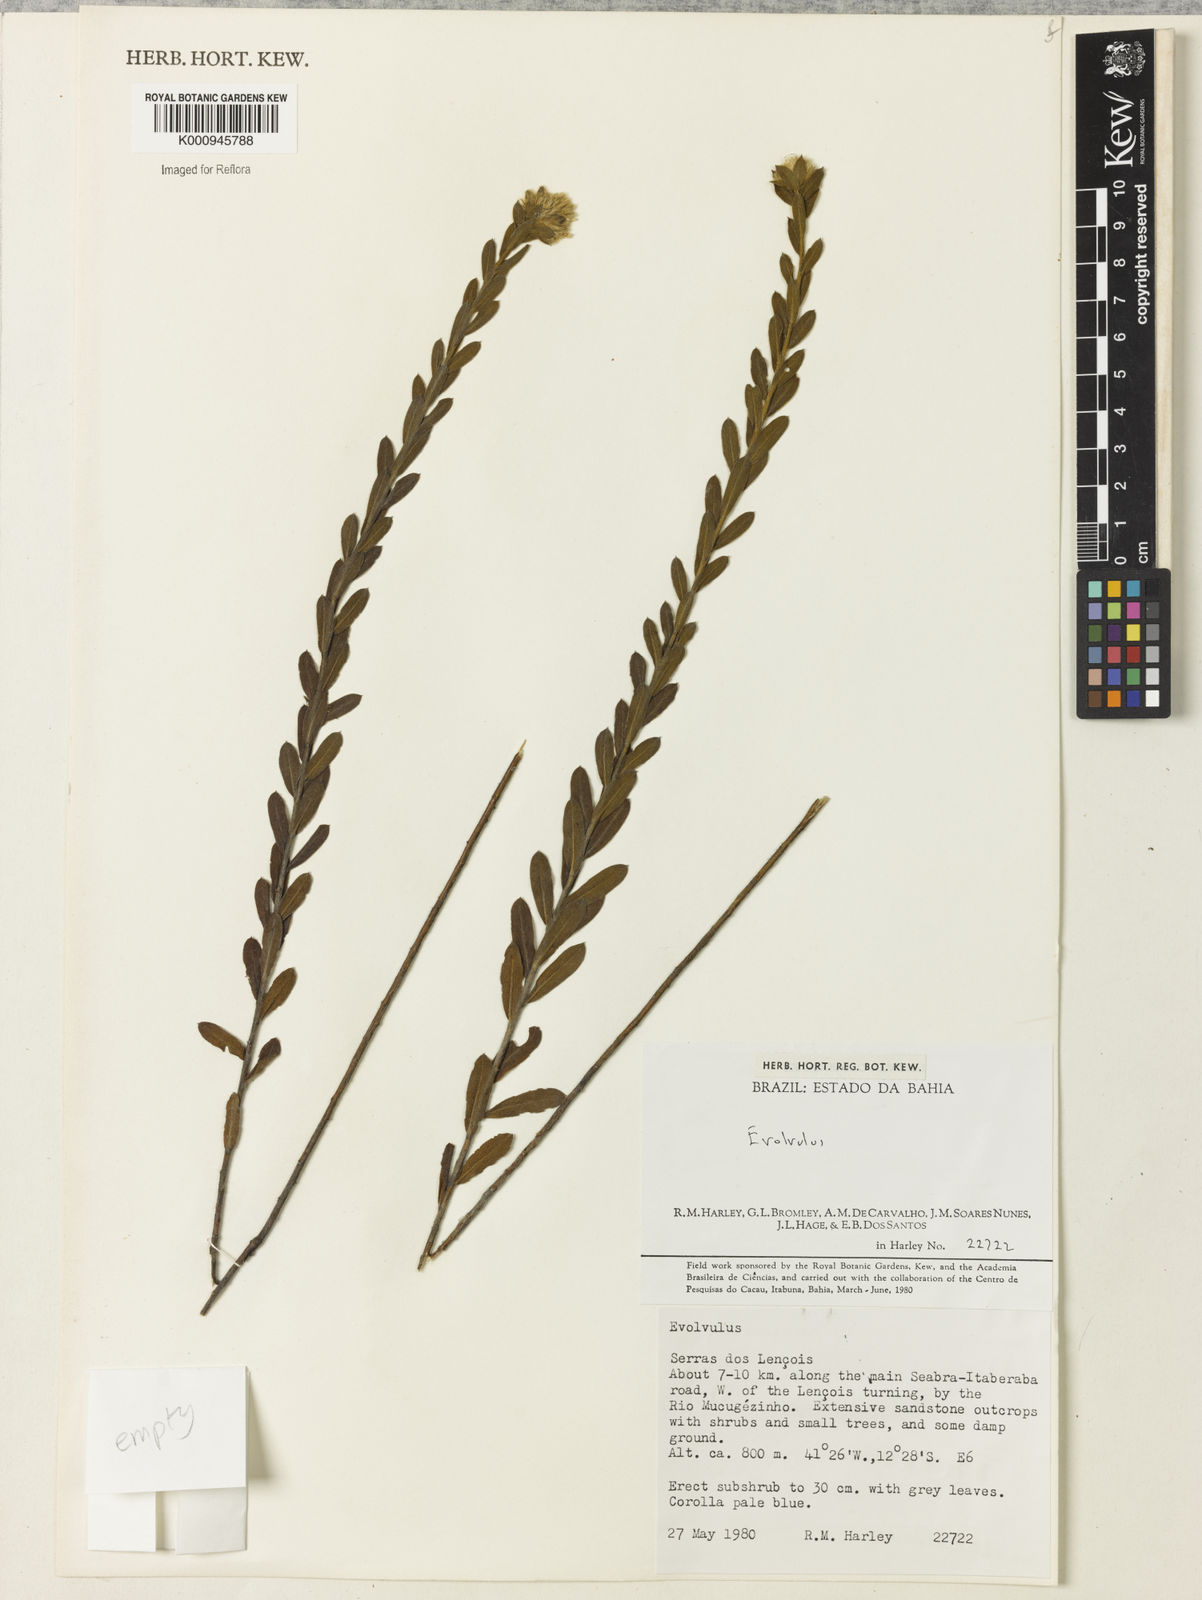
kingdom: Plantae
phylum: Tracheophyta
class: Magnoliopsida
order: Solanales
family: Convolvulaceae
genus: Evolvulus
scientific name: Evolvulus
